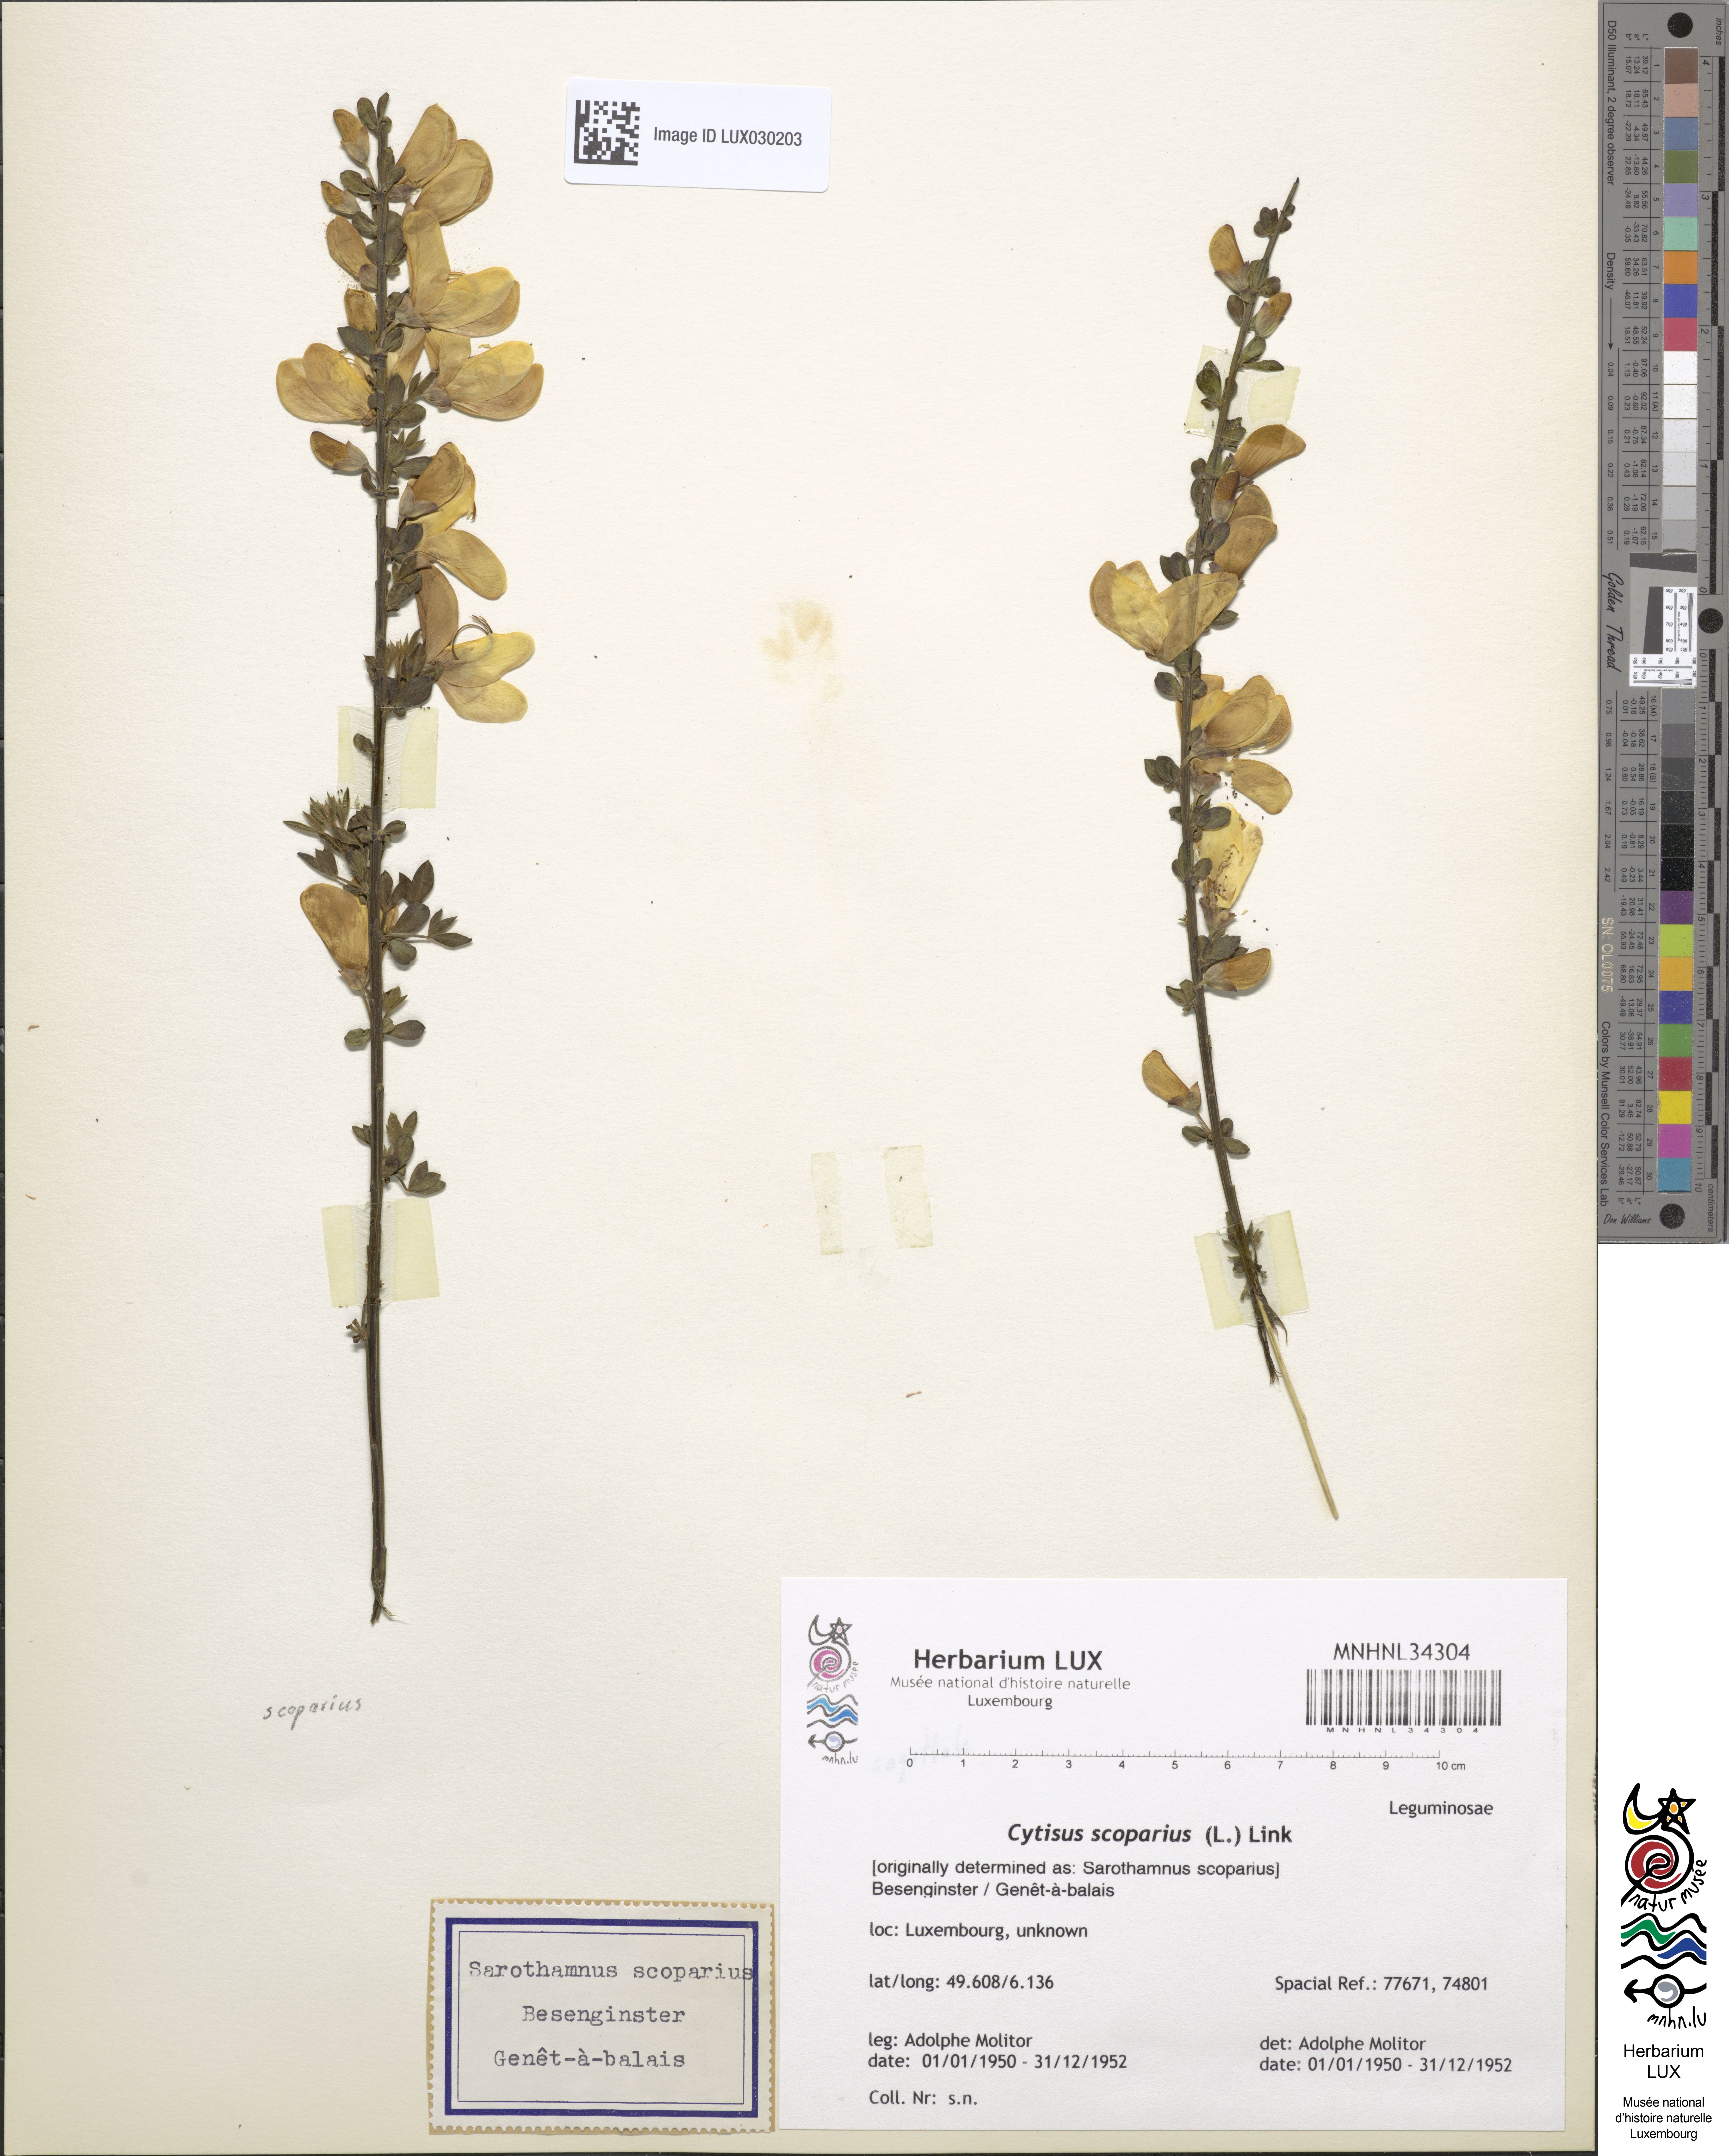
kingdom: Plantae
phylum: Tracheophyta
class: Magnoliopsida
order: Fabales
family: Fabaceae
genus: Cytisus
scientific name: Cytisus scoparius
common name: Scotch broom
